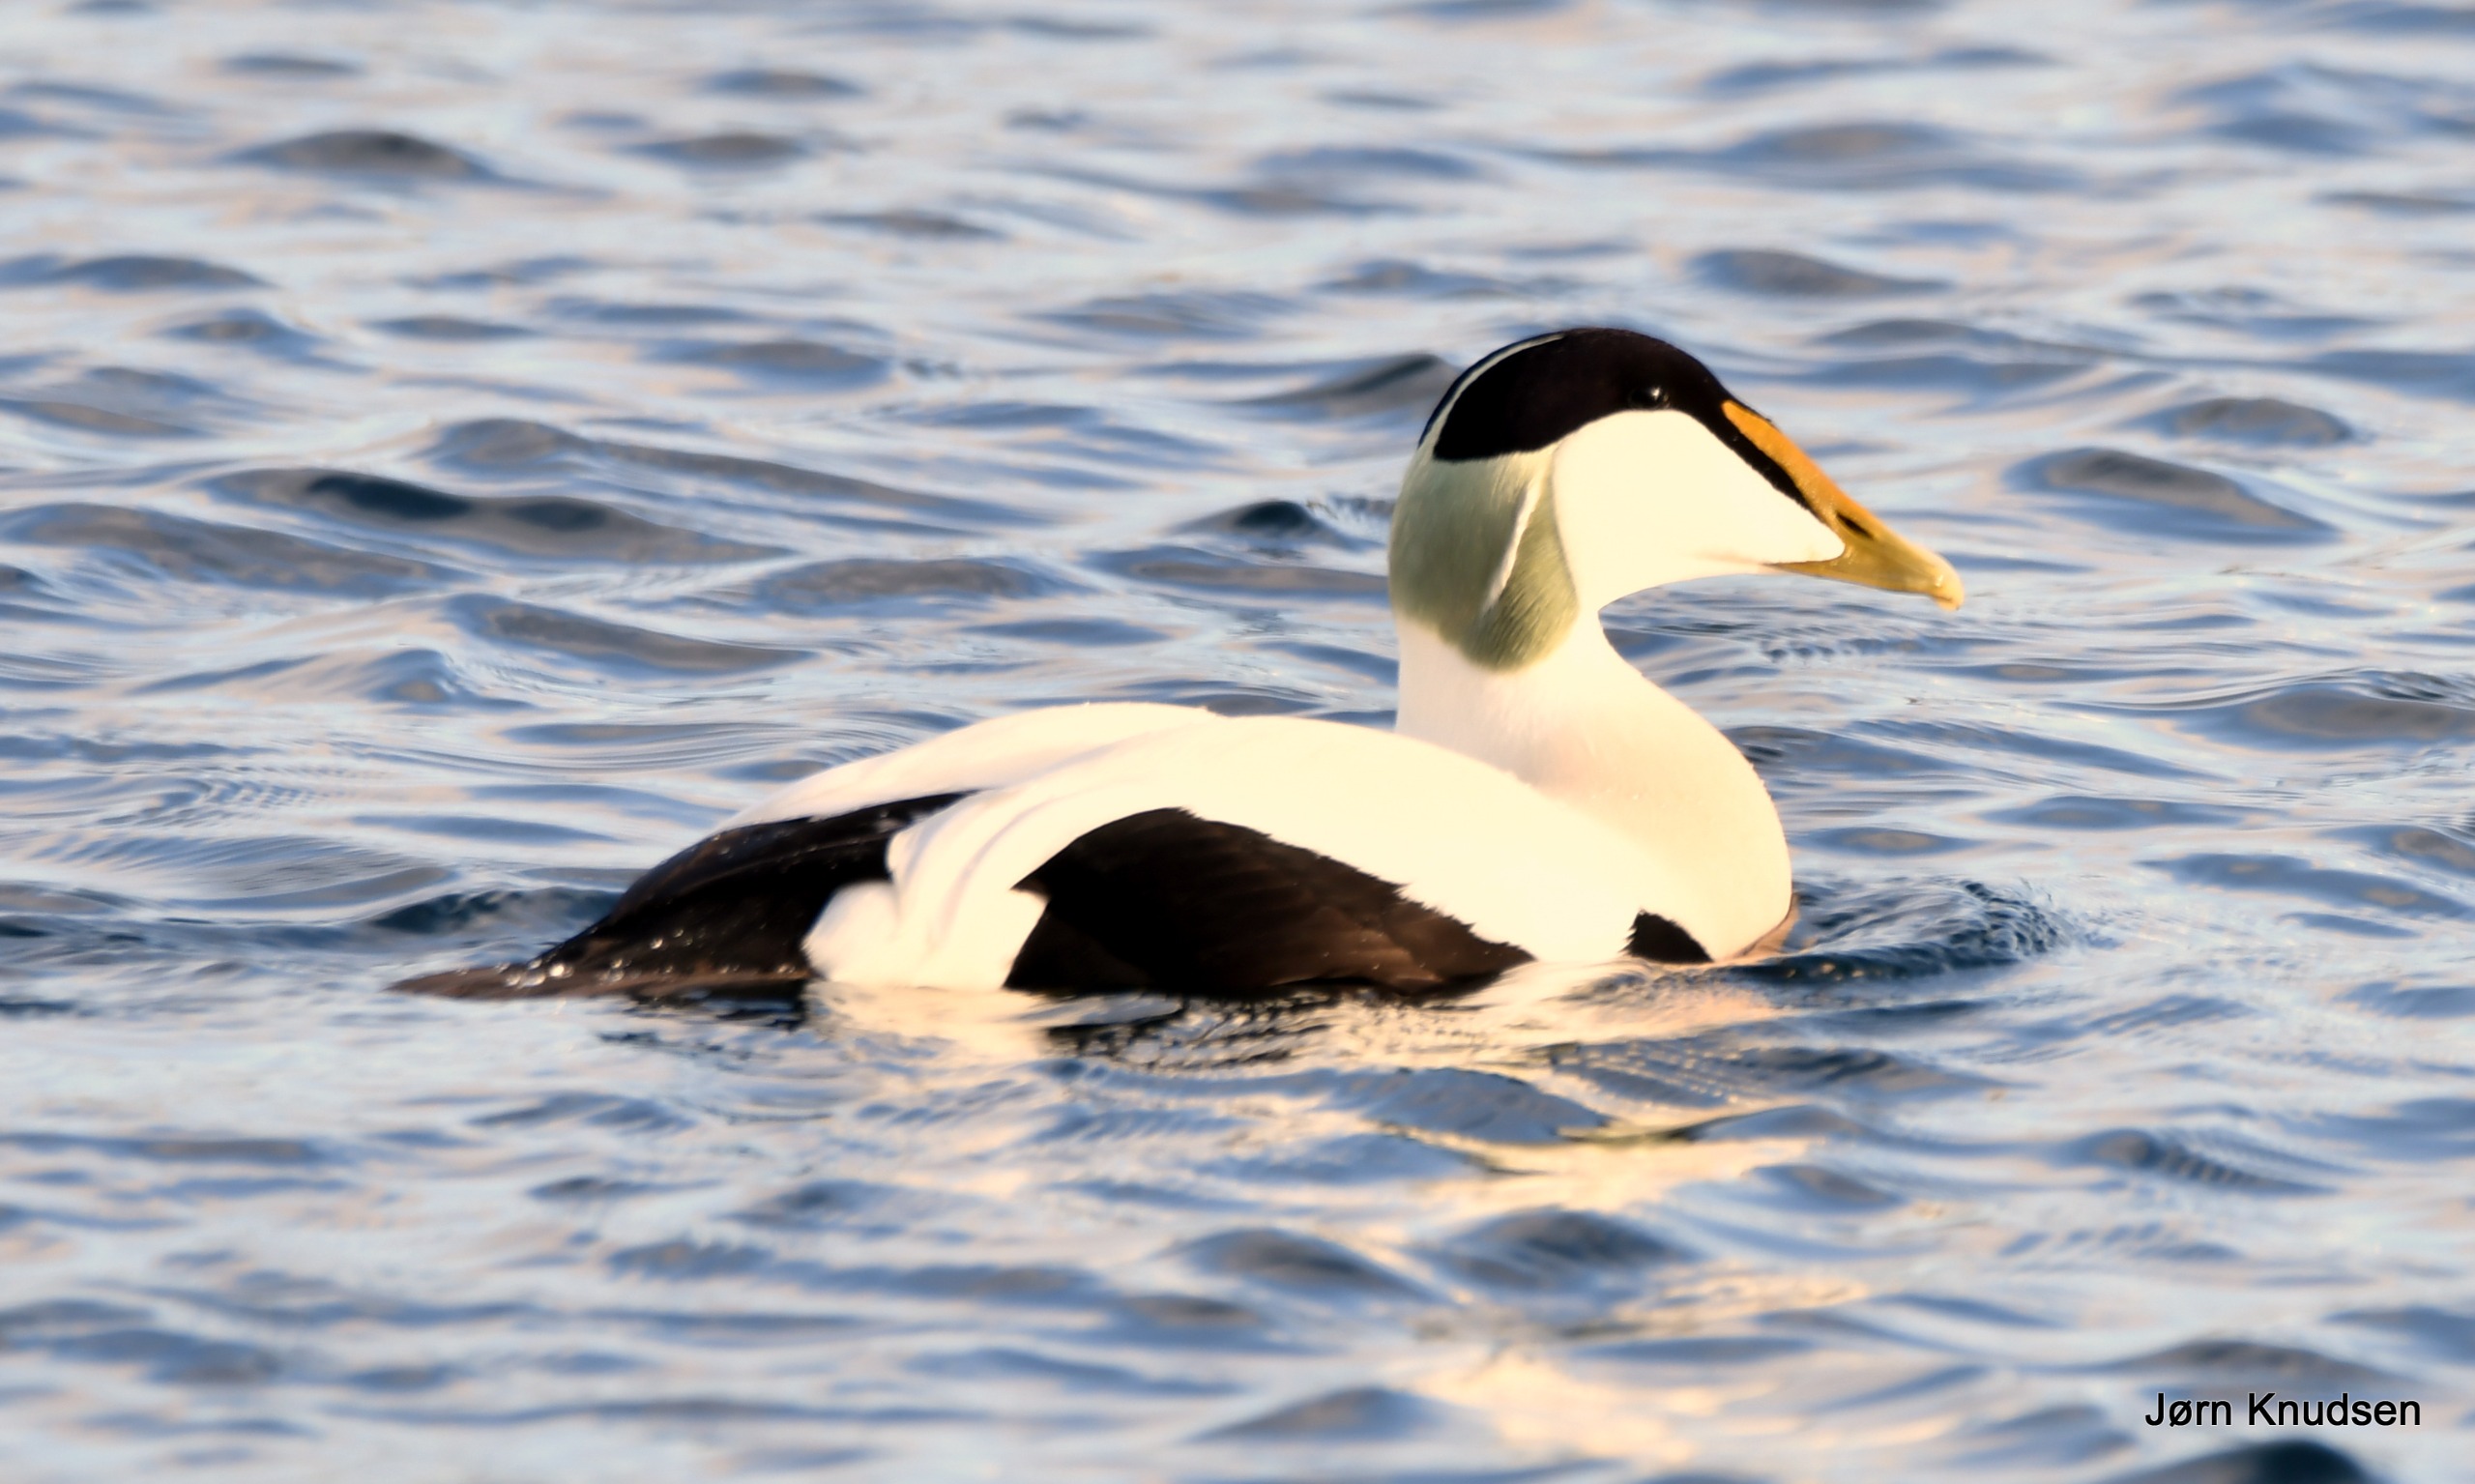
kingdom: Animalia
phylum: Chordata
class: Aves
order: Anseriformes
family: Anatidae
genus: Somateria
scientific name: Somateria mollissima
